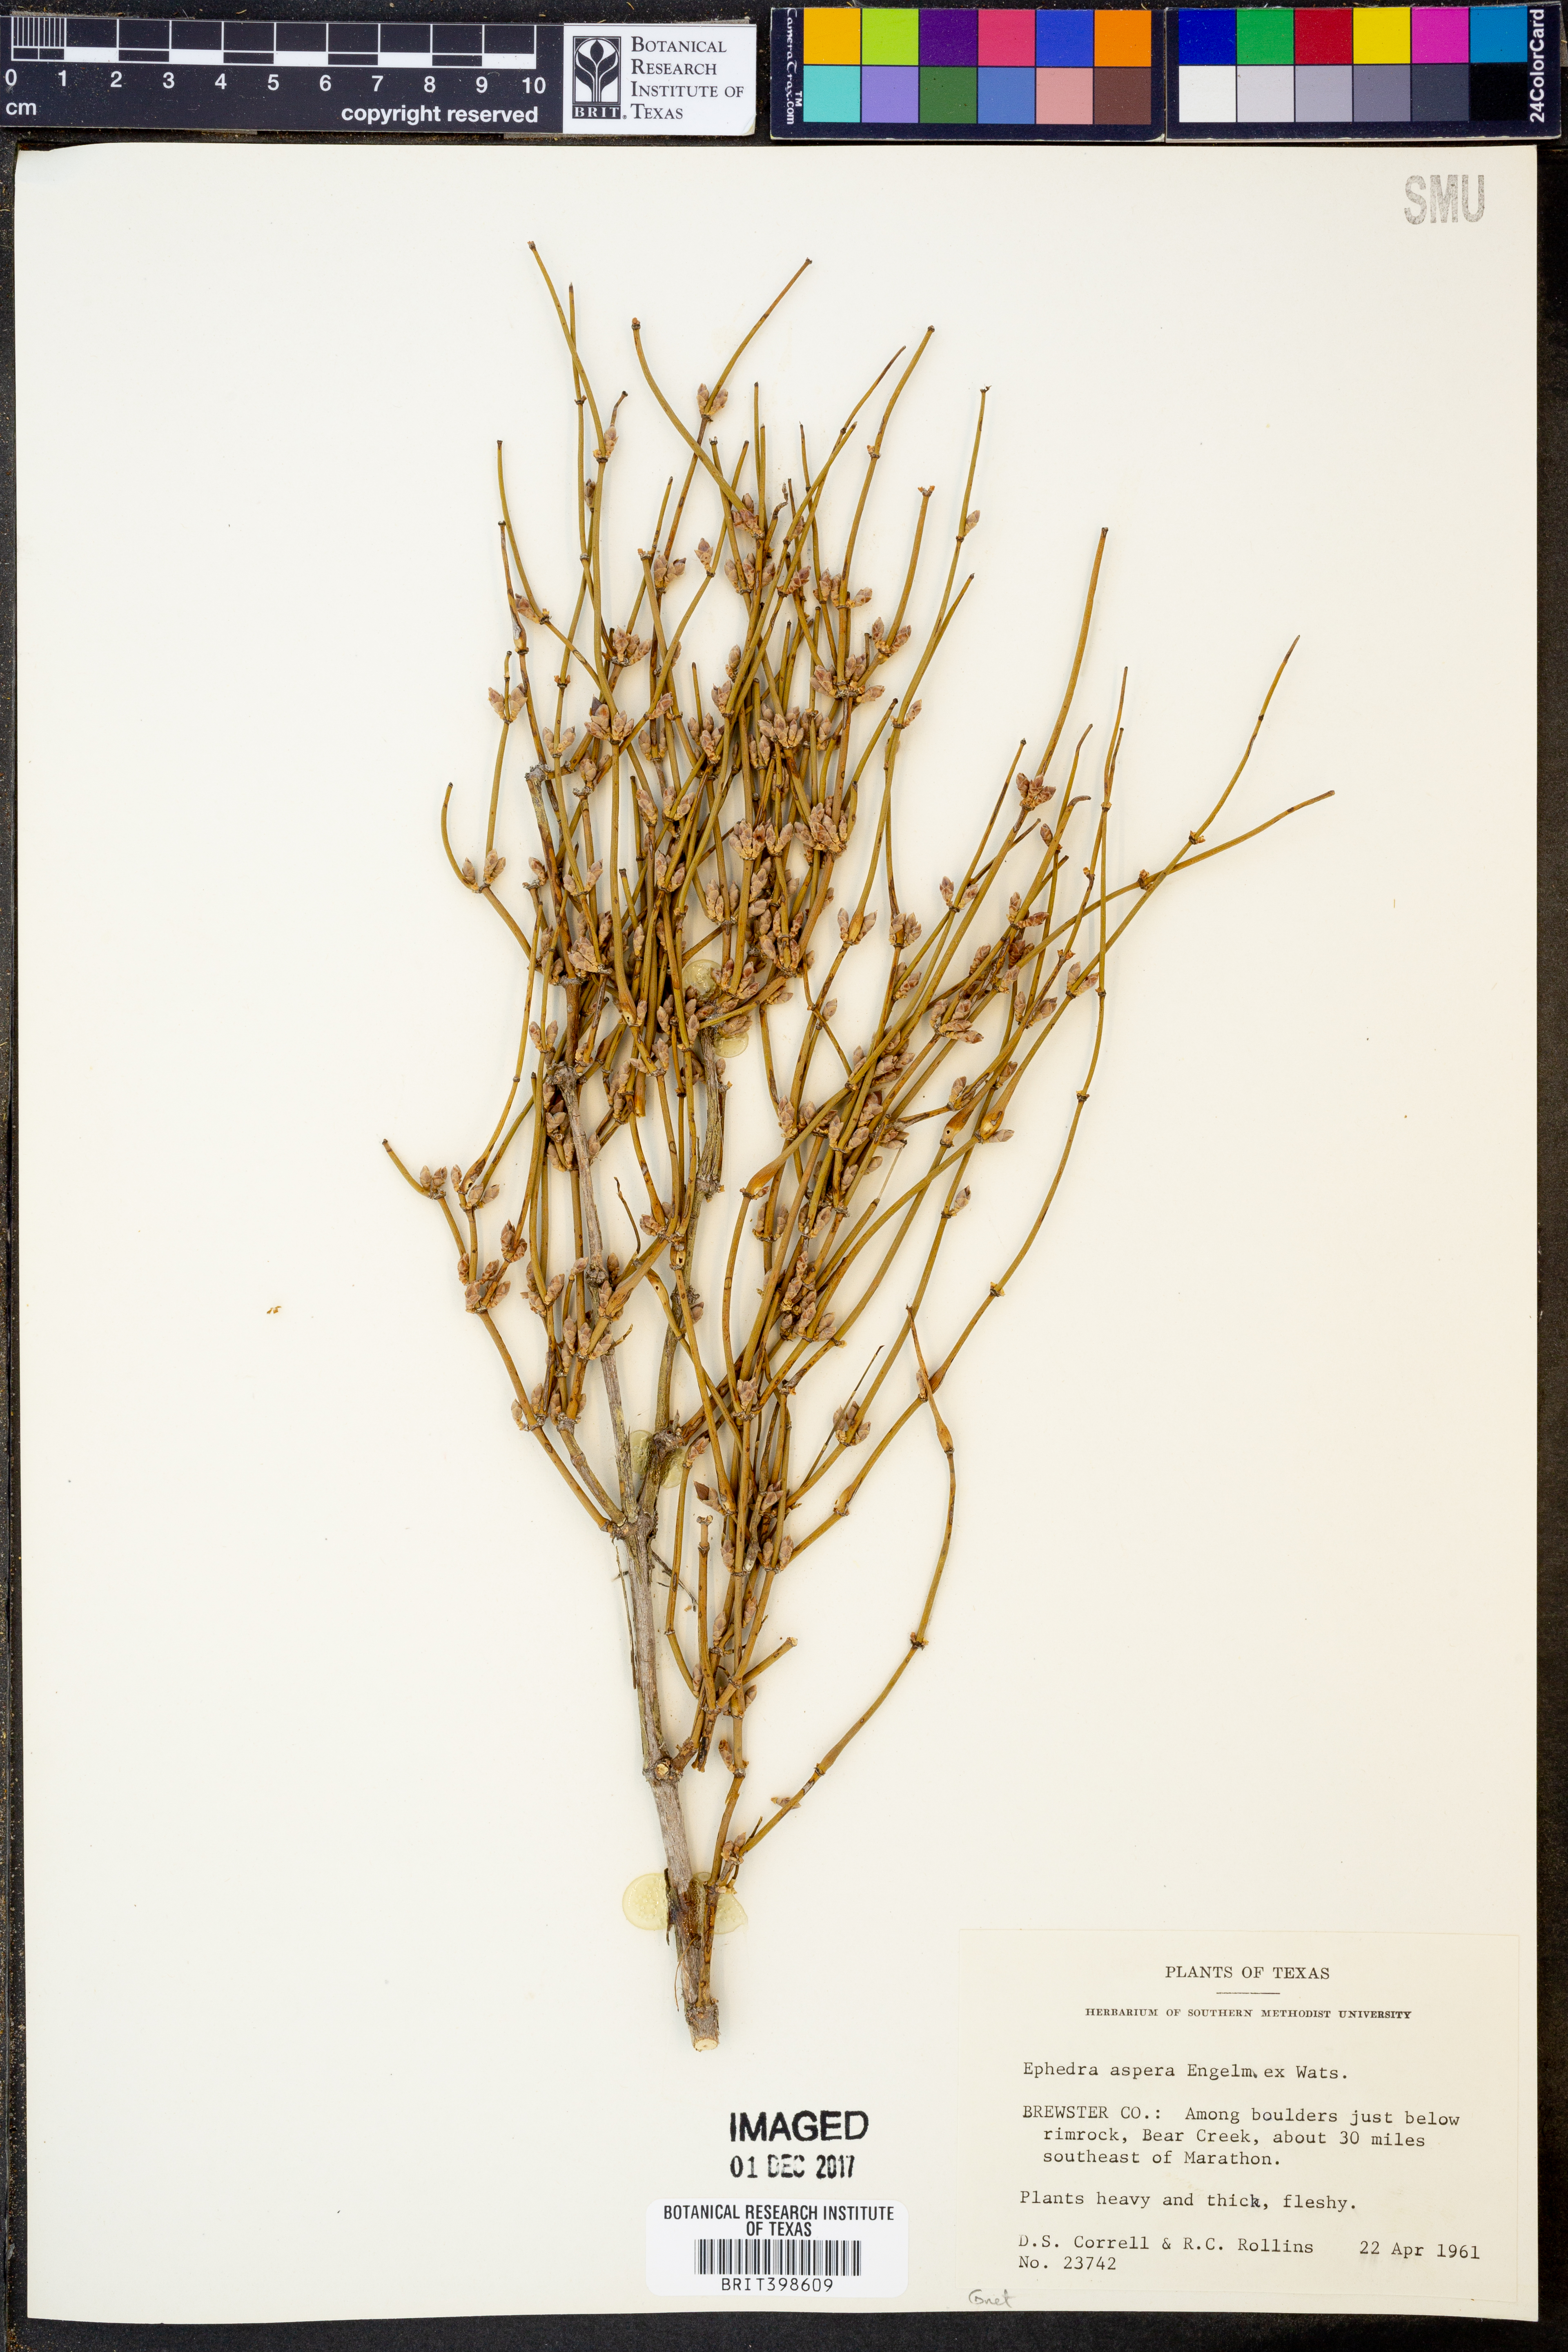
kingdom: Plantae
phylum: Tracheophyta
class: Gnetopsida
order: Ephedrales
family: Ephedraceae
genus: Ephedra
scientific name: Ephedra aspera
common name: Boundary ephedra
